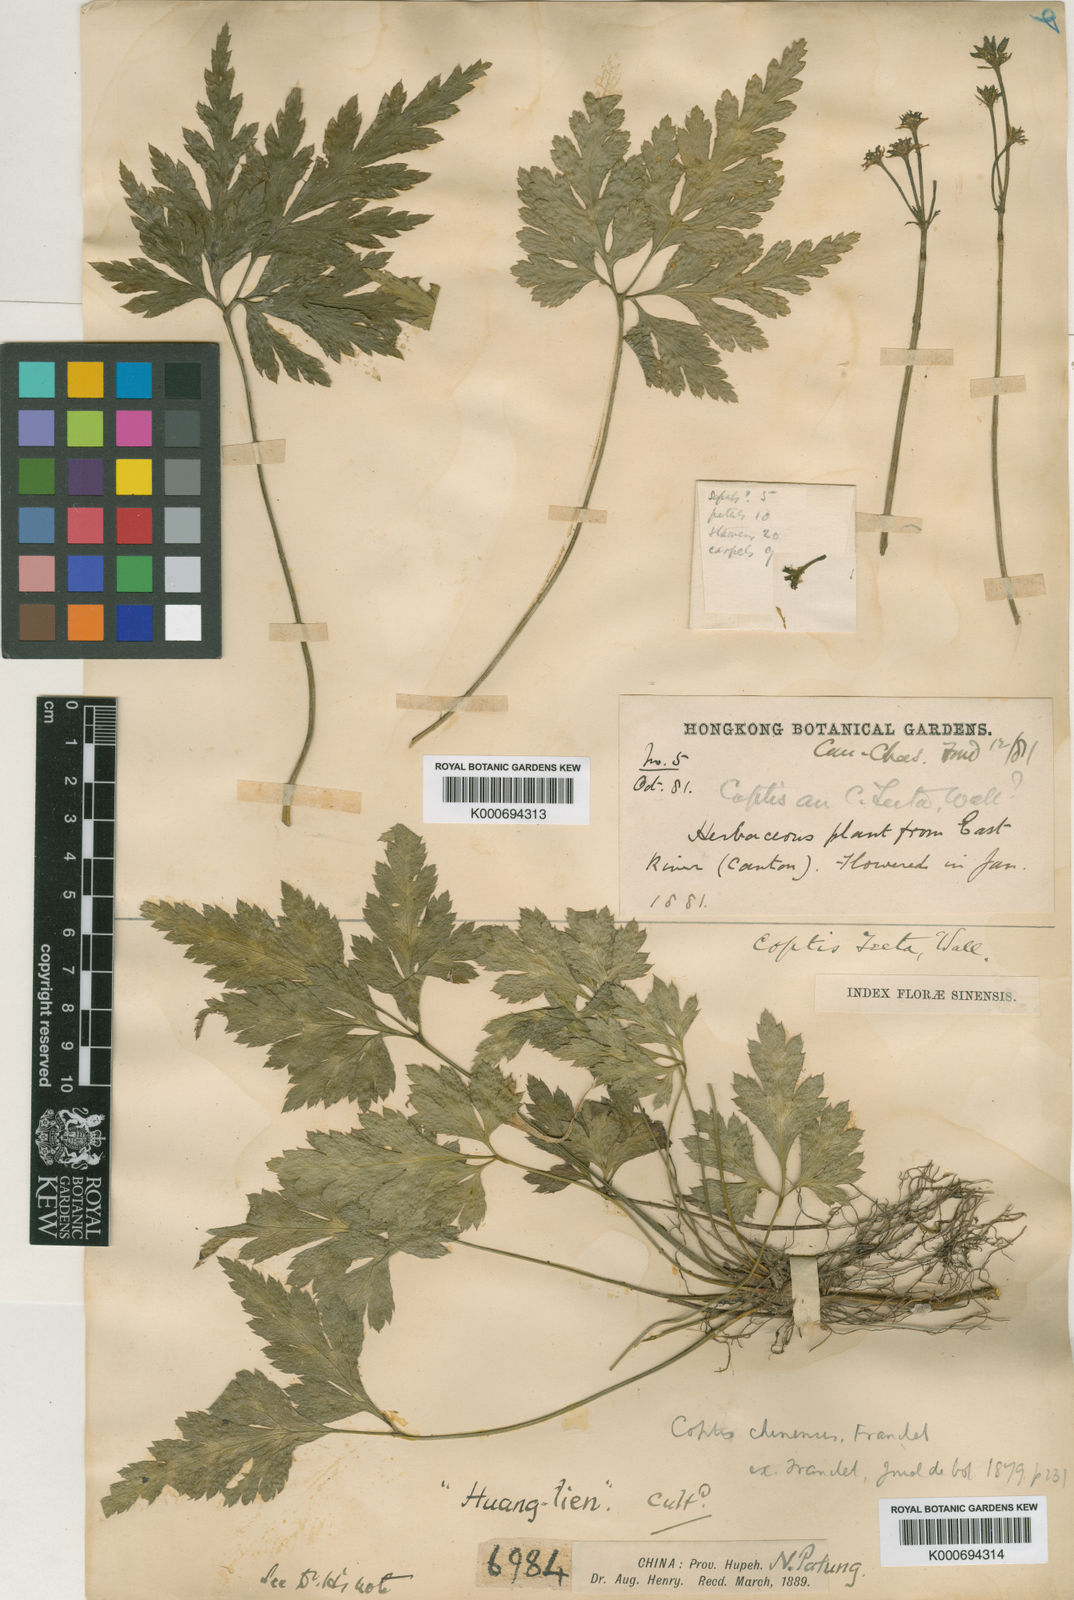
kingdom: Plantae
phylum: Tracheophyta
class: Magnoliopsida
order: Ranunculales
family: Ranunculaceae
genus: Coptis
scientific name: Coptis chinensis
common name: Chinese goldthread
